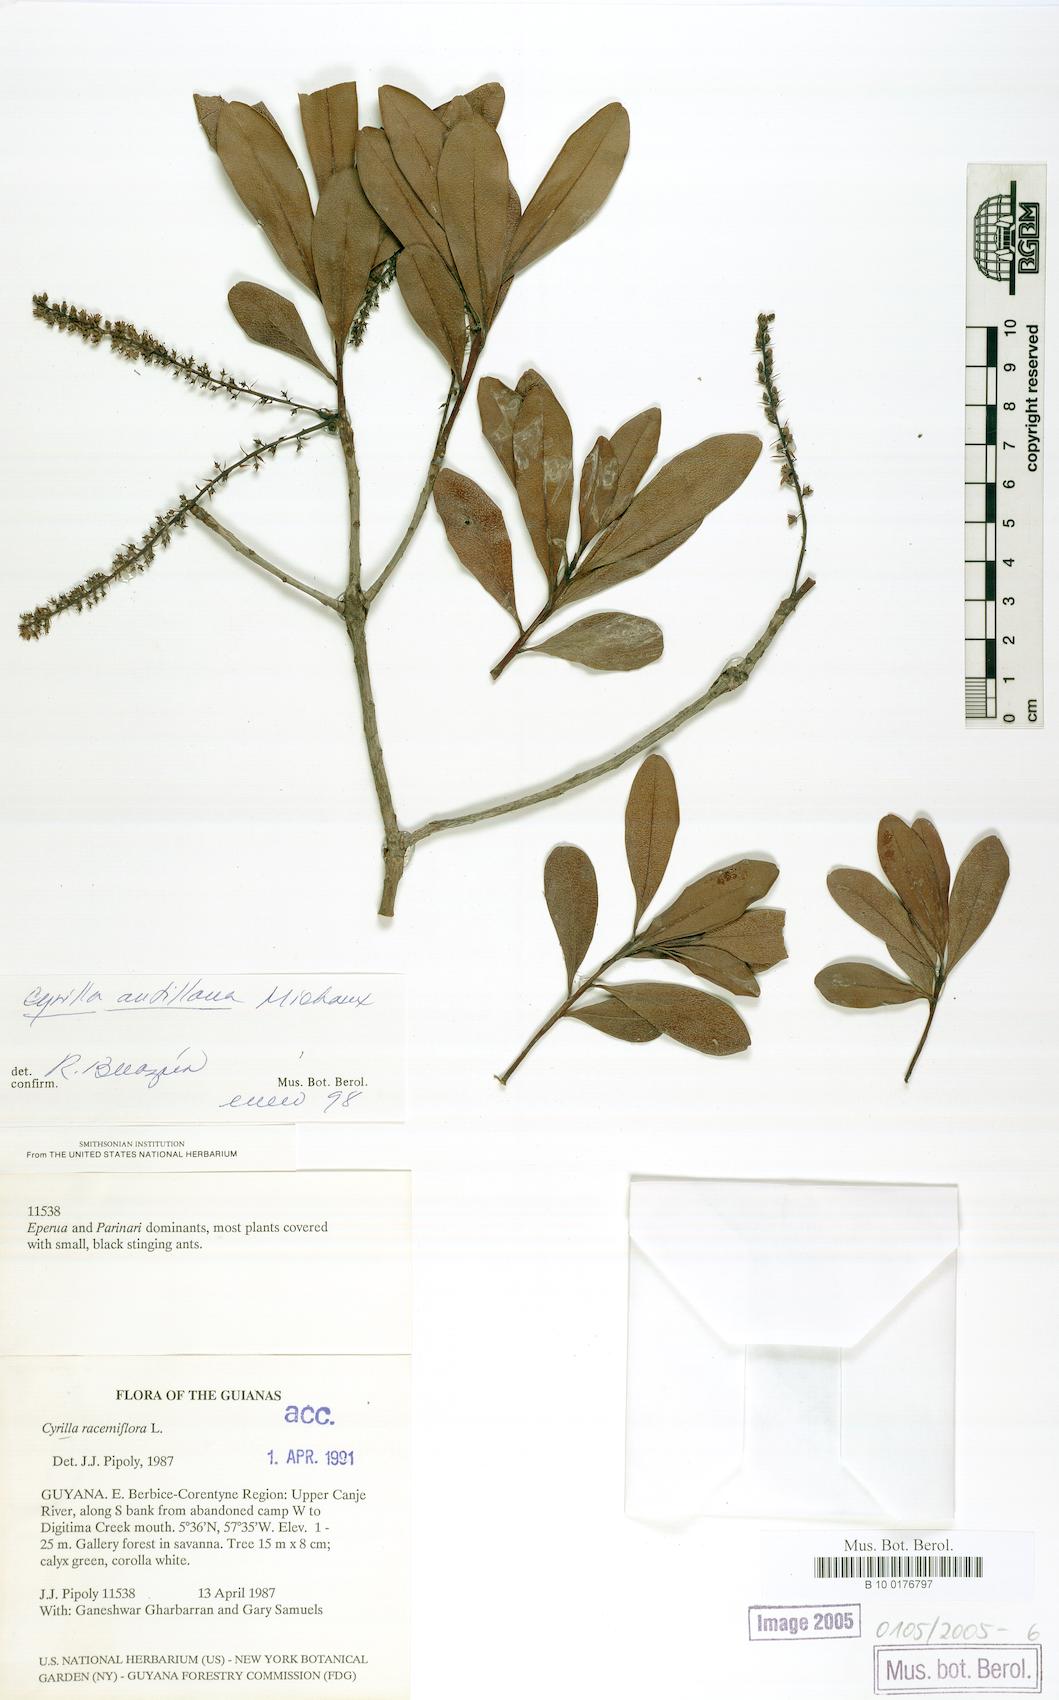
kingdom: Plantae
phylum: Tracheophyta
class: Magnoliopsida
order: Ericales
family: Cyrillaceae
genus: Cyrilla
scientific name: Cyrilla racemiflora
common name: Black titi
